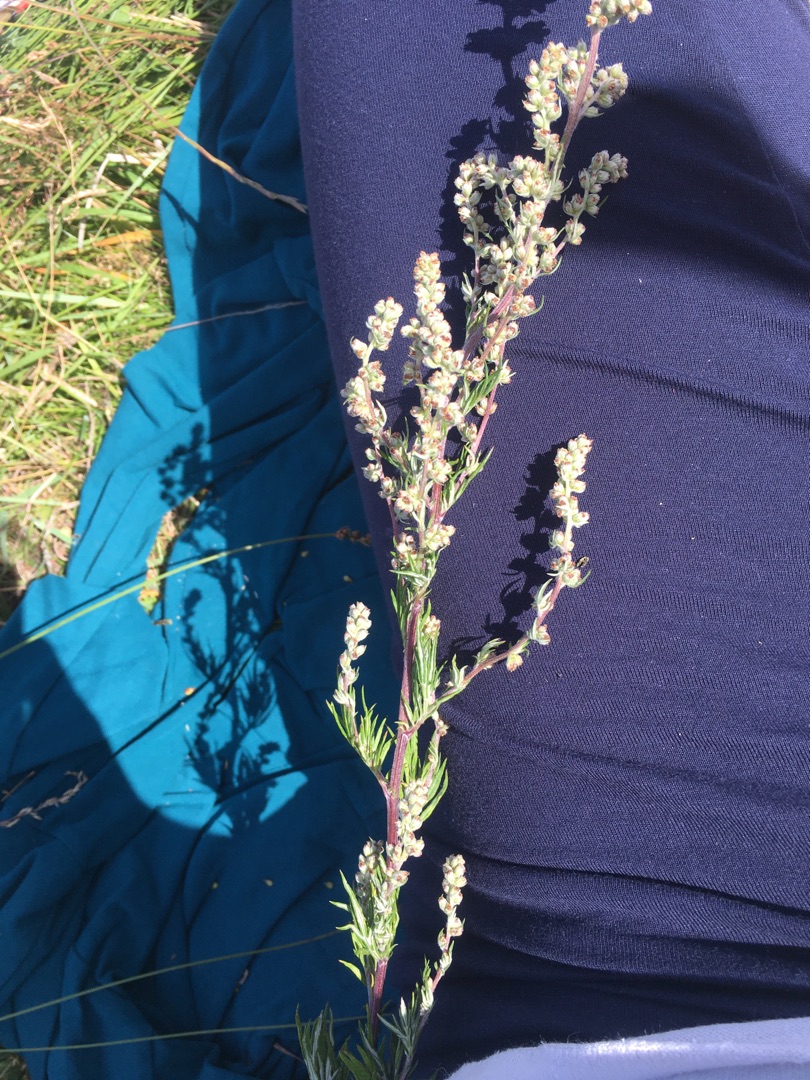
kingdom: Plantae
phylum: Tracheophyta
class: Magnoliopsida
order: Asterales
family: Asteraceae
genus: Artemisia
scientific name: Artemisia vulgaris
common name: Grå-bynke
